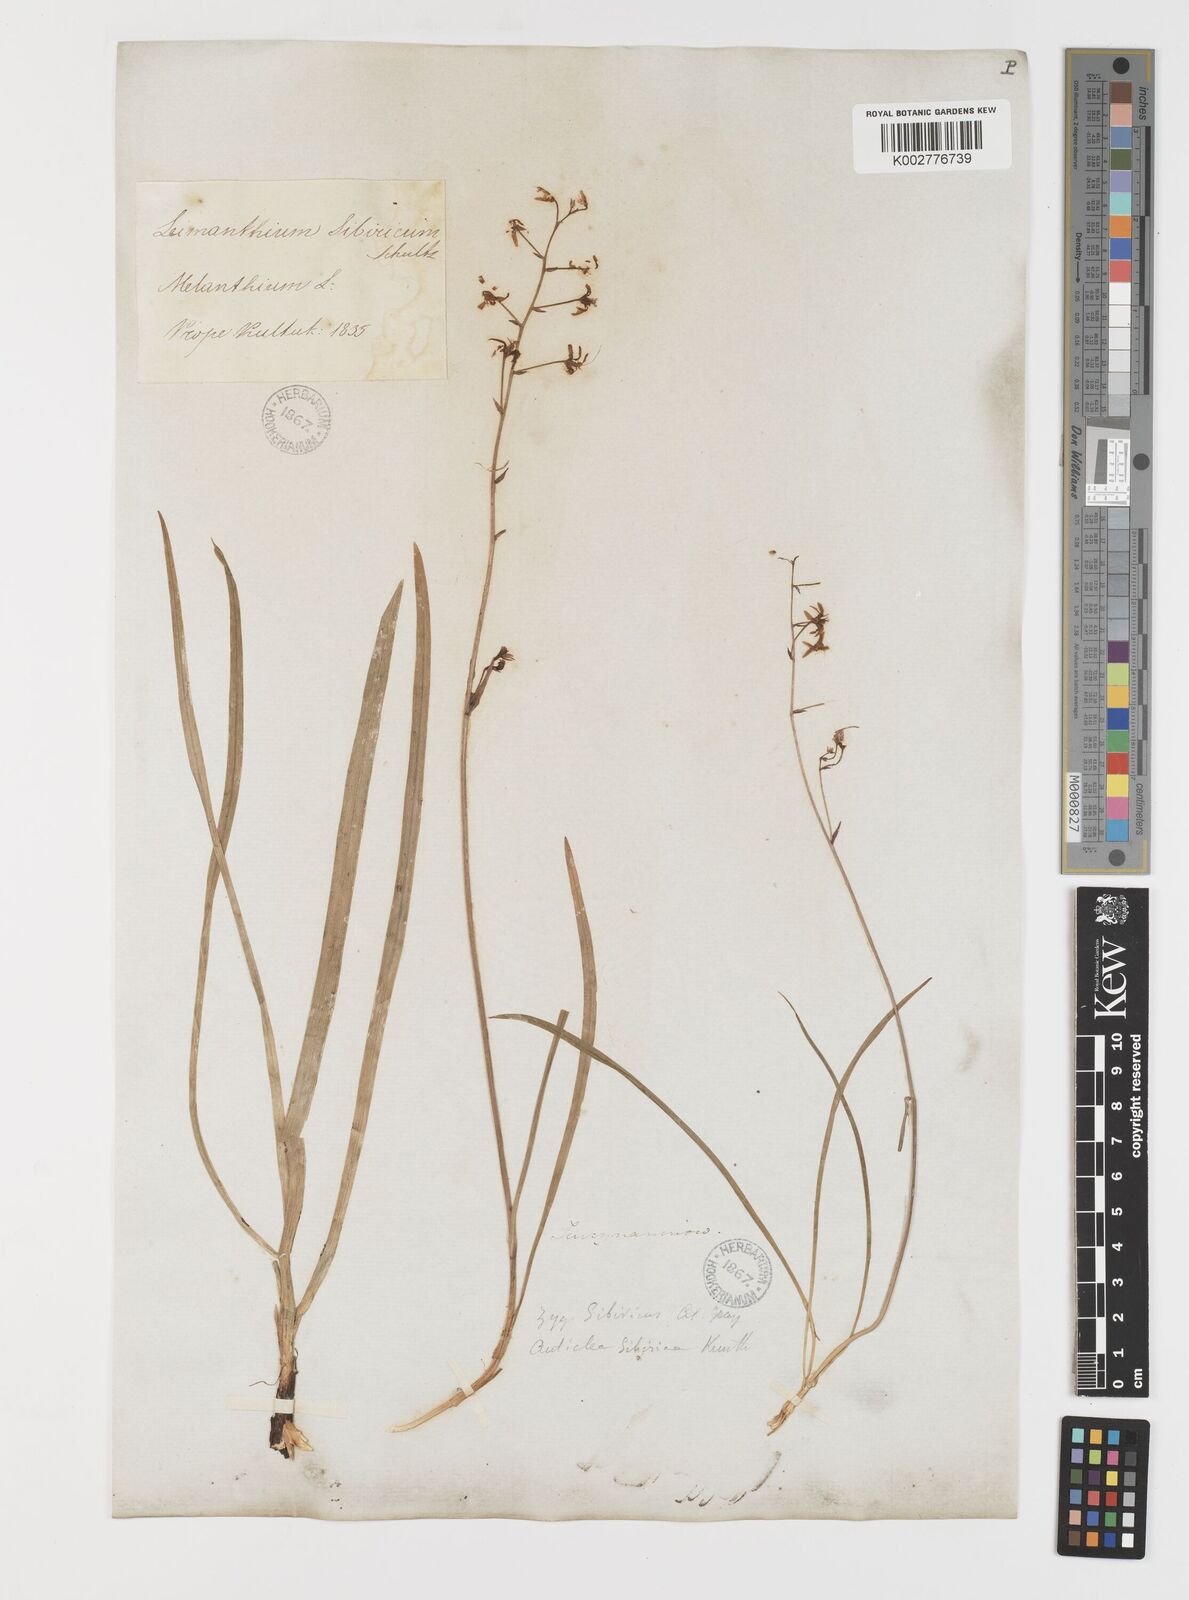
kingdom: Plantae
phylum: Tracheophyta
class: Liliopsida
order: Liliales
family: Melanthiaceae
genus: Anticlea
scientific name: Anticlea sibirica
